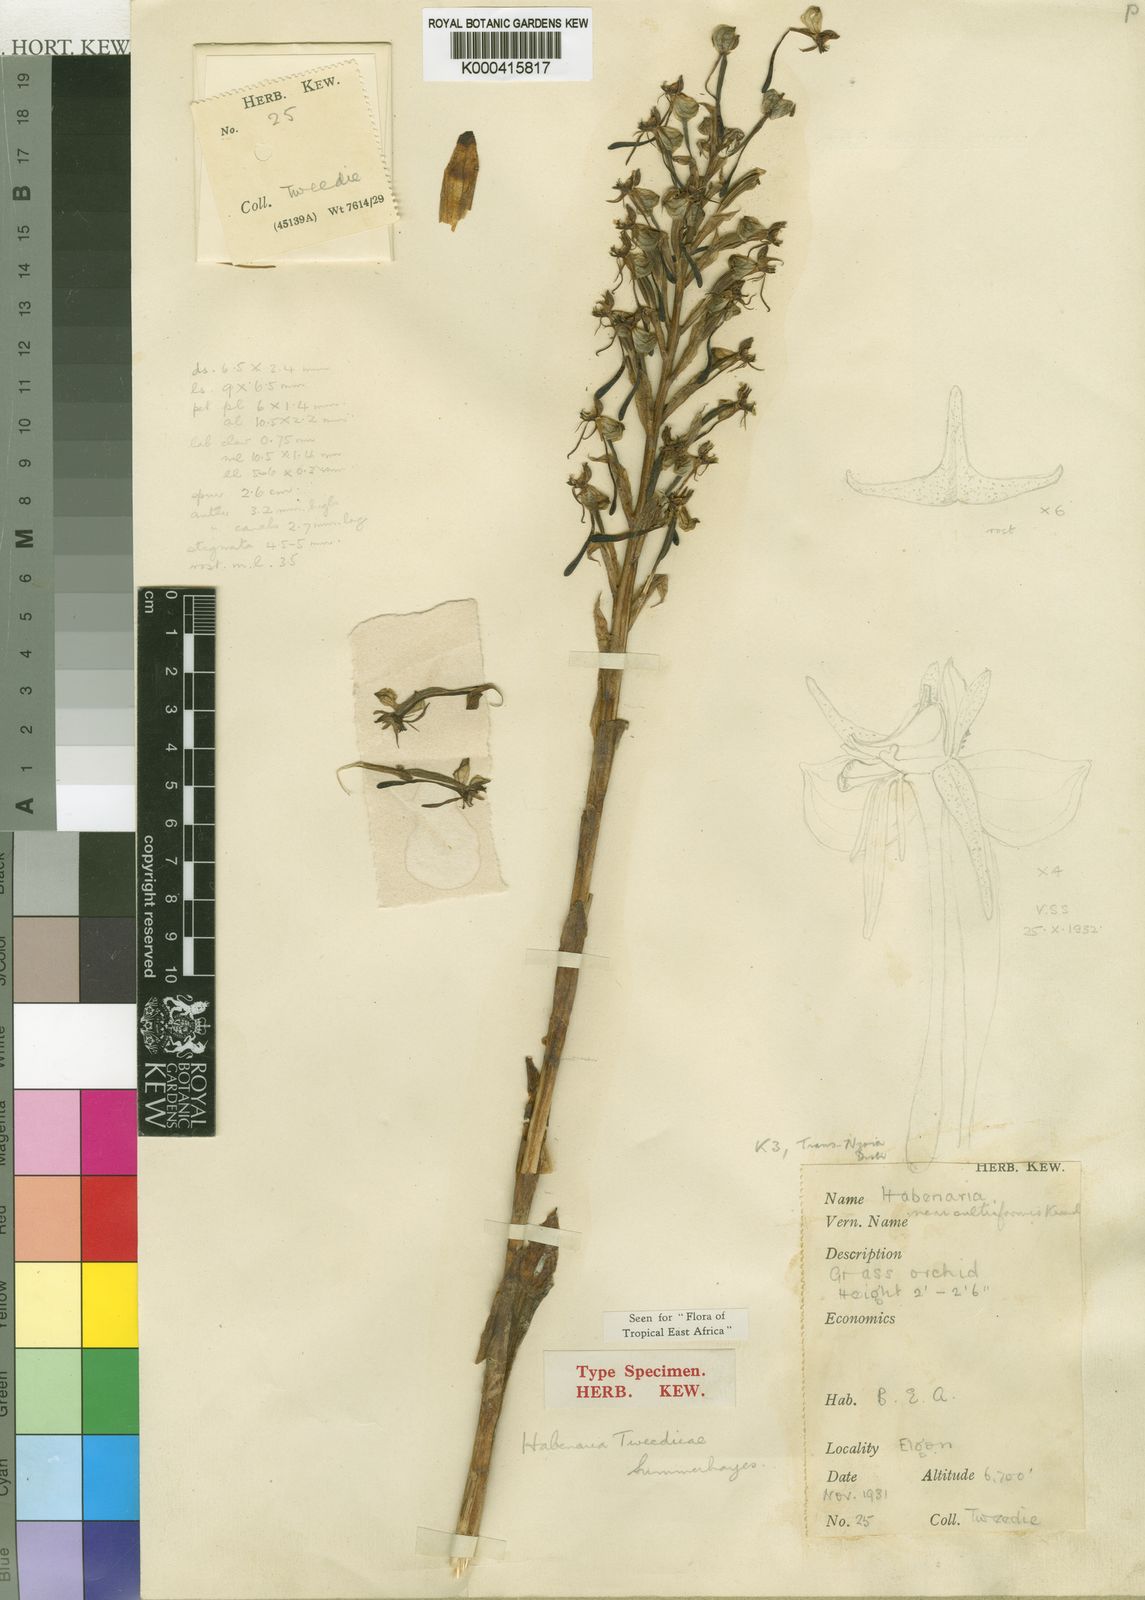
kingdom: Plantae
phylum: Tracheophyta
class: Liliopsida
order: Asparagales
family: Orchidaceae
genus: Habenaria
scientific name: Habenaria tweedieae
